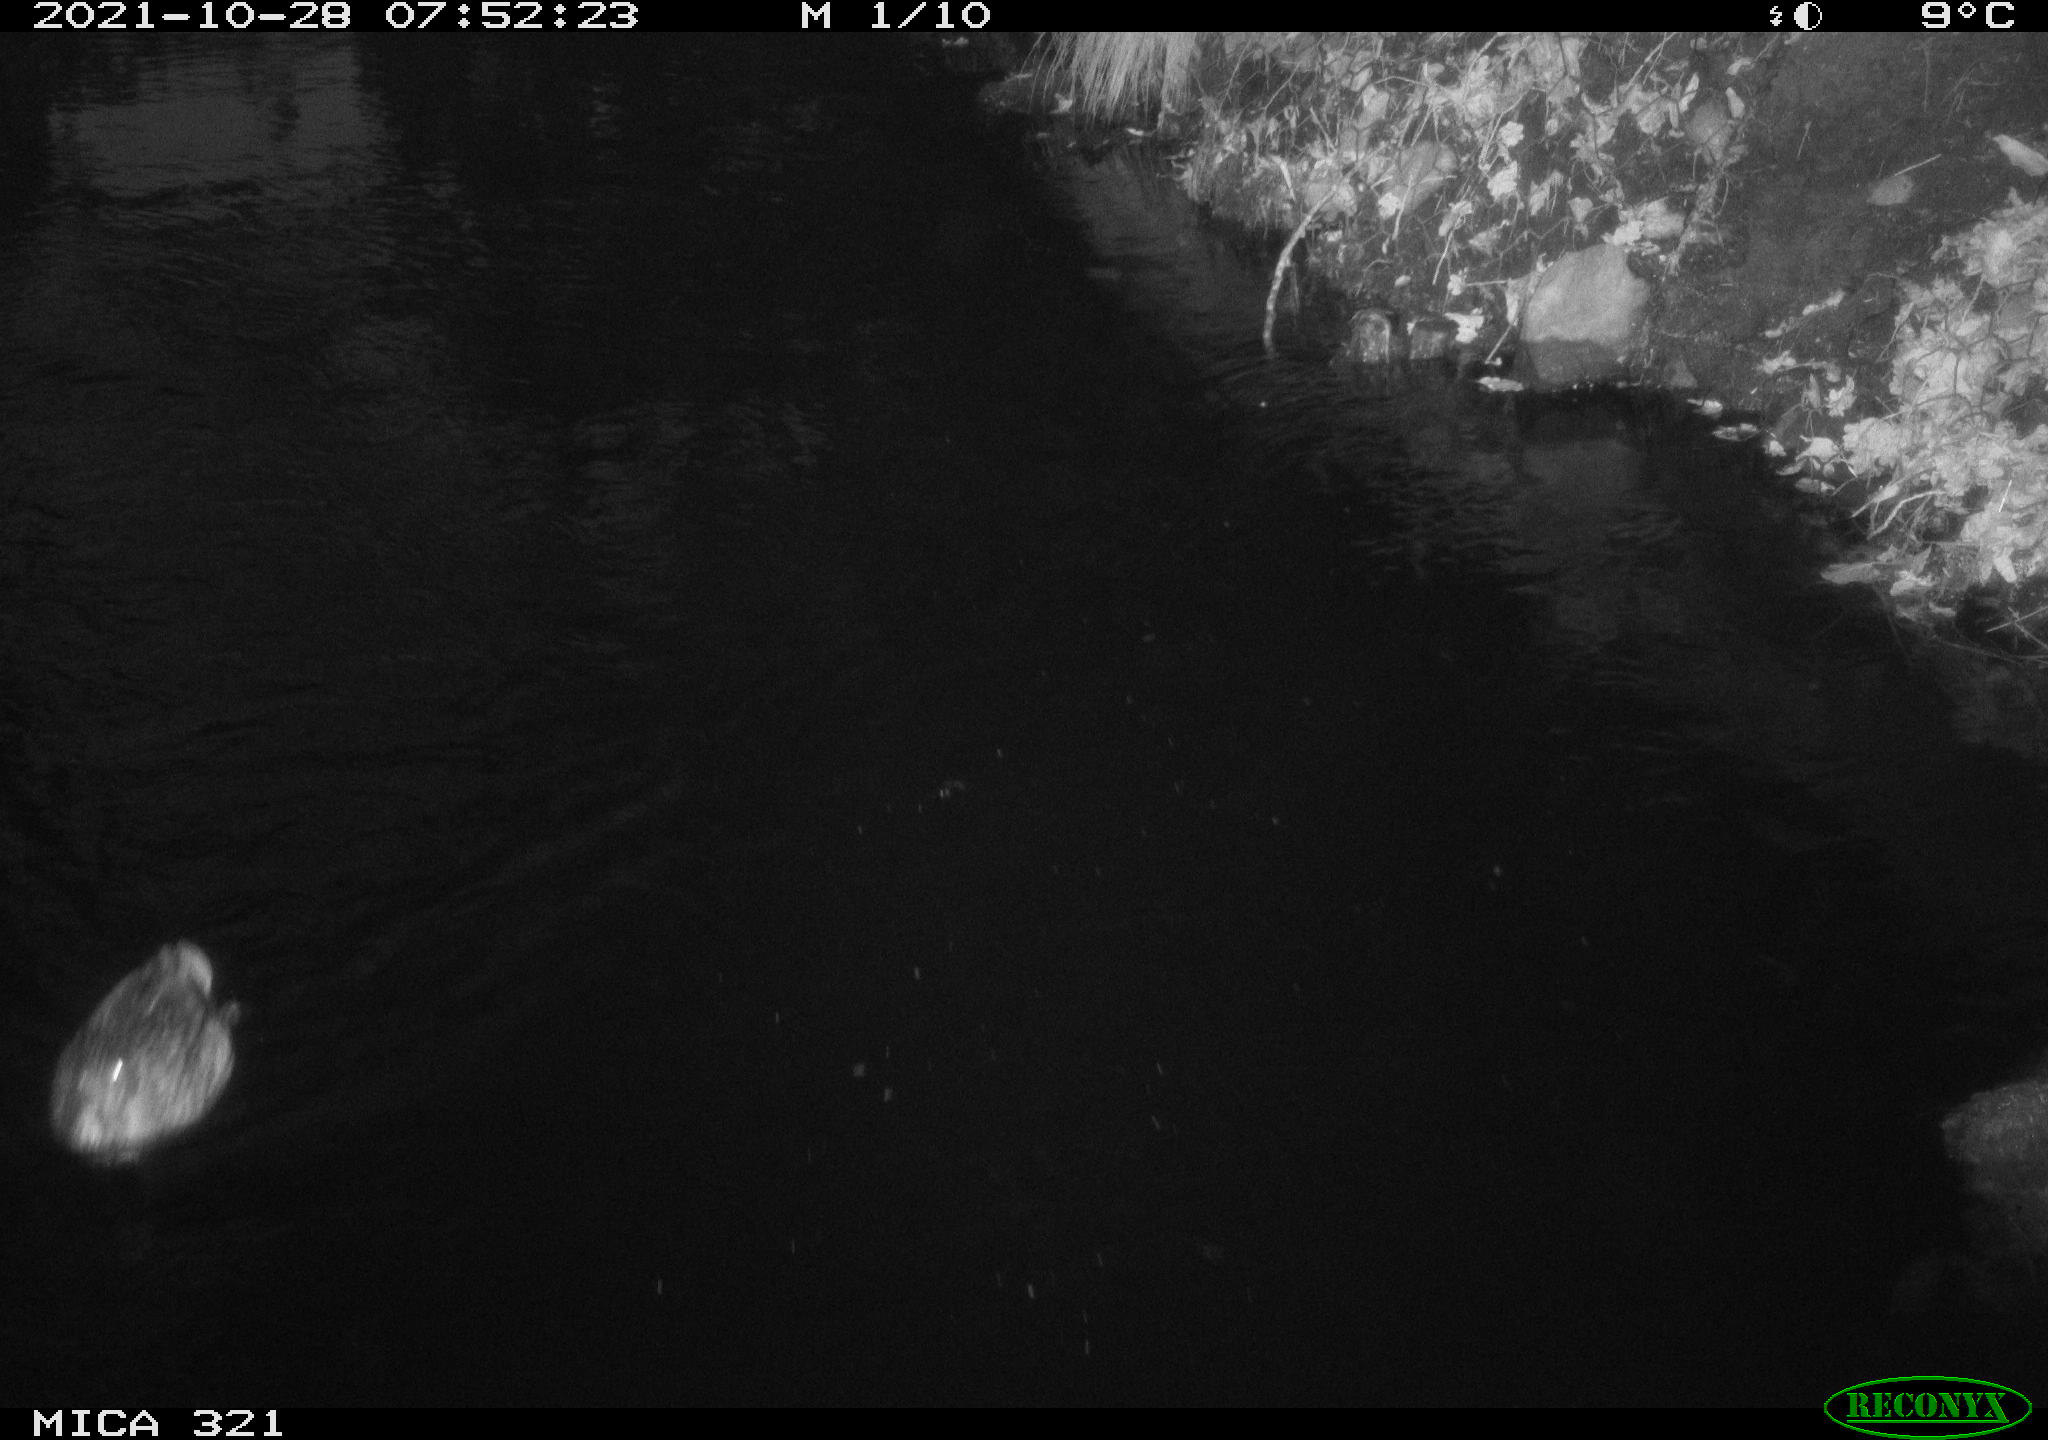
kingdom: Animalia
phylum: Chordata
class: Aves
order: Anseriformes
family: Anatidae
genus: Anas
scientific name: Anas platyrhynchos
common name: Mallard
